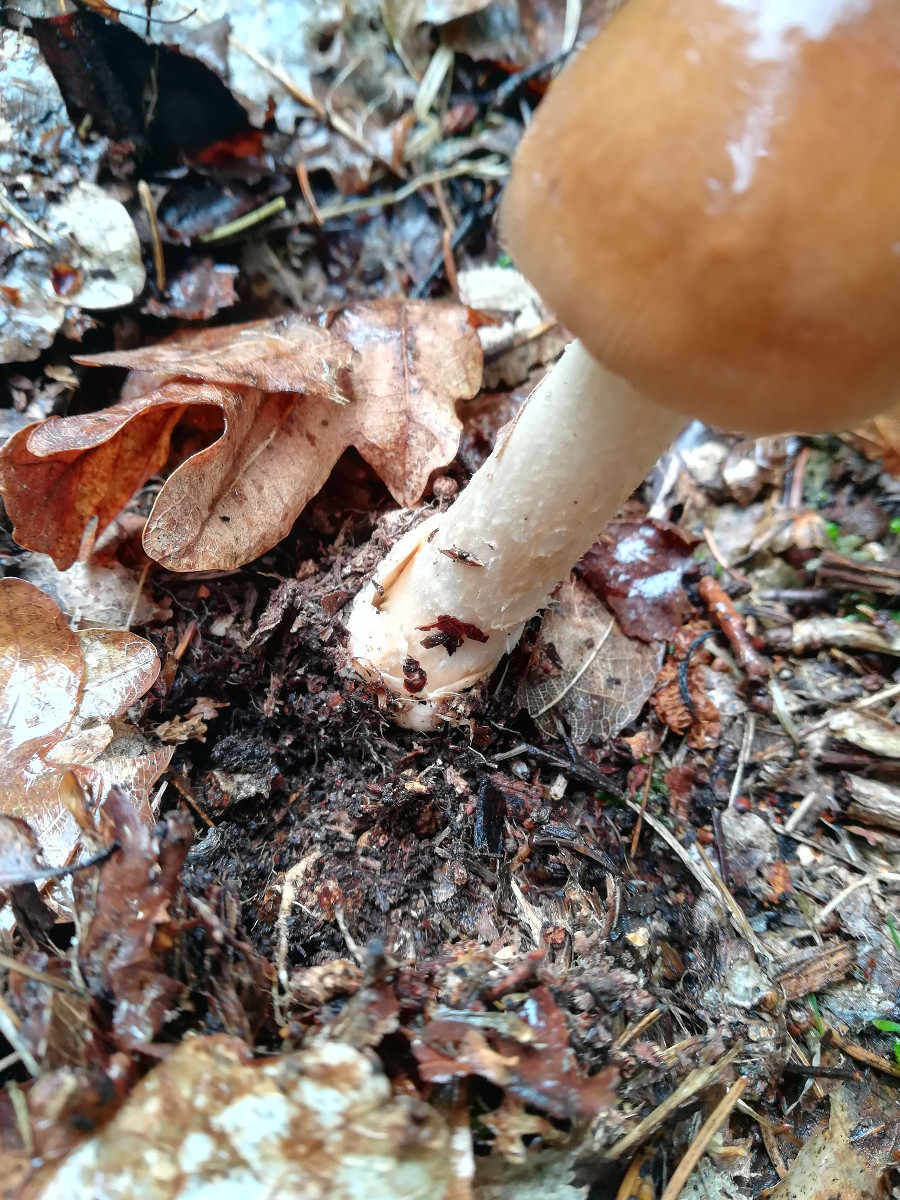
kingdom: Fungi
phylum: Basidiomycota
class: Agaricomycetes
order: Agaricales
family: Amanitaceae
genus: Amanita
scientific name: Amanita fulva
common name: brun kam-fluesvamp
